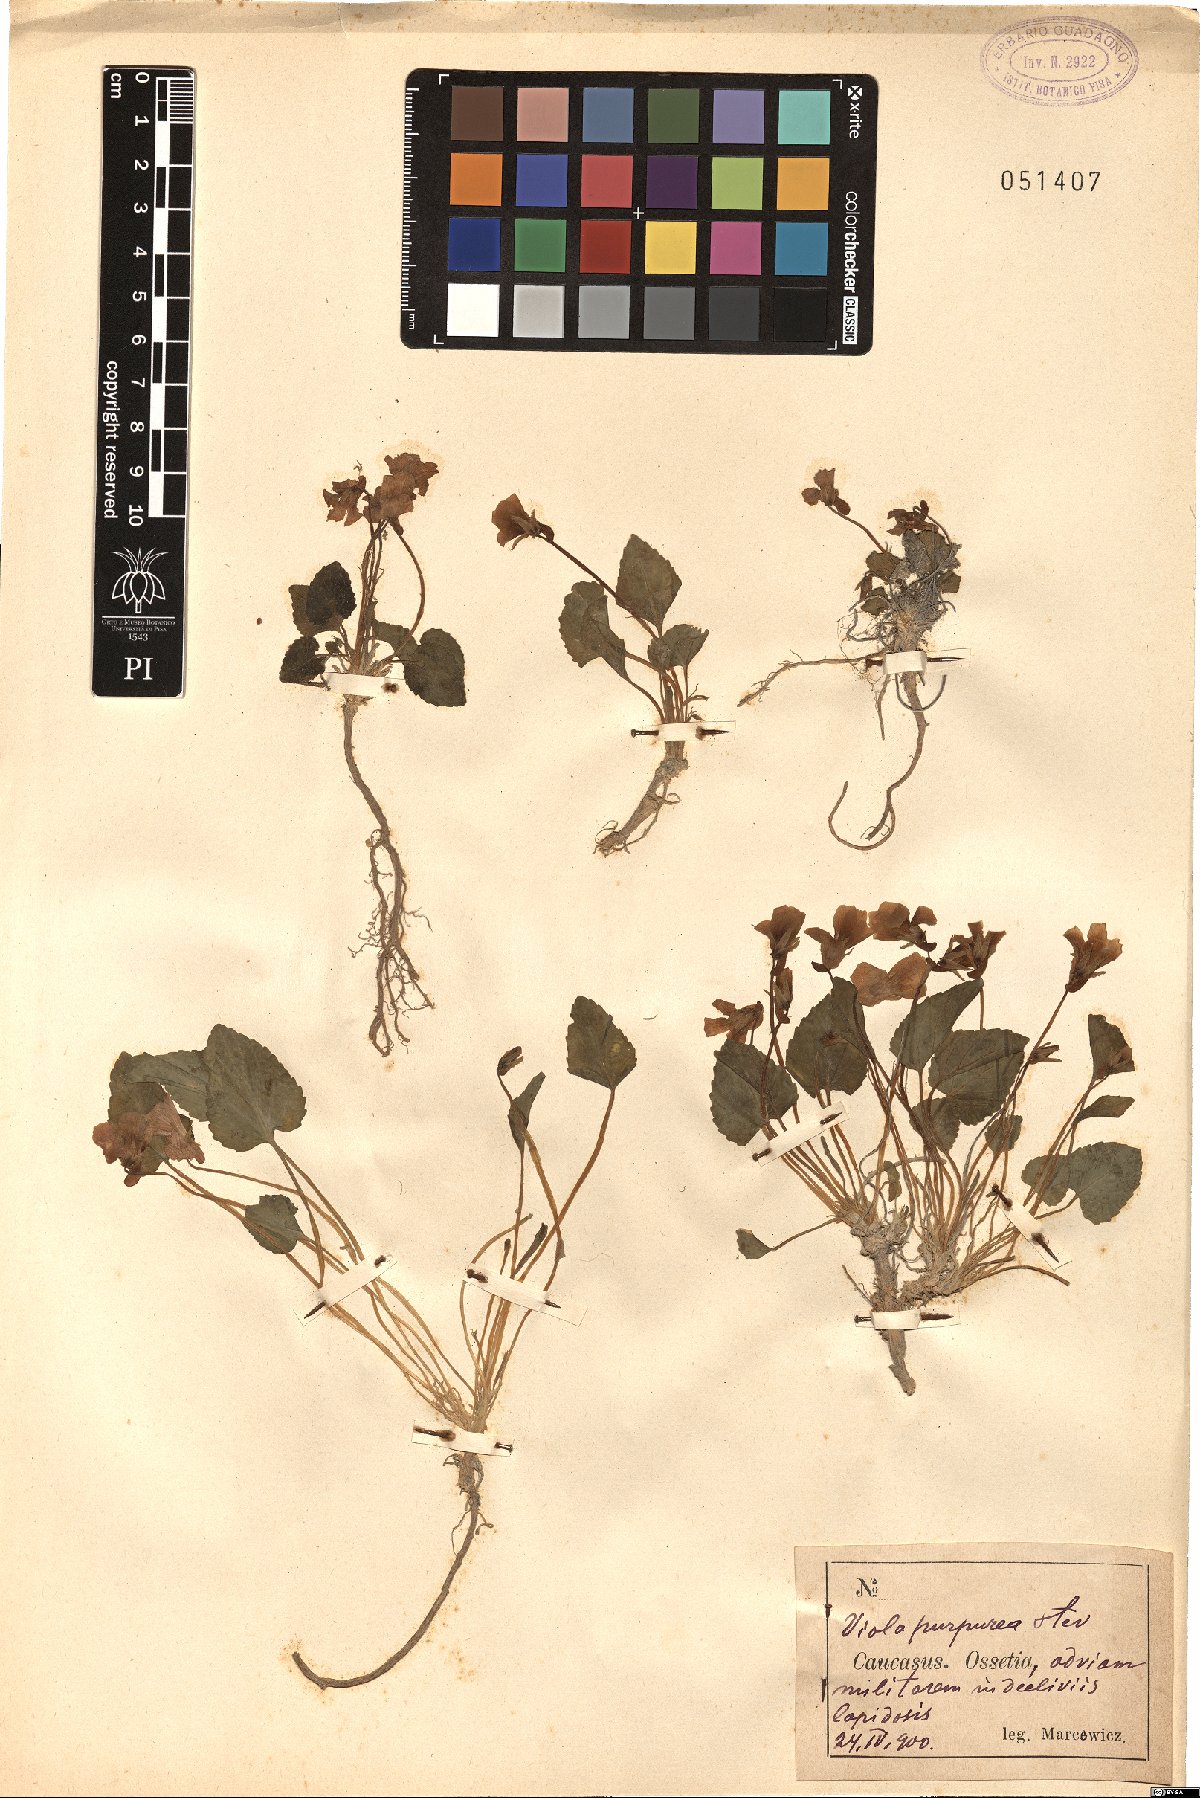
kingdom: Plantae
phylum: Tracheophyta
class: Magnoliopsida
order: Malpighiales
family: Violaceae
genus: Viola
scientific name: Viola somchetica
